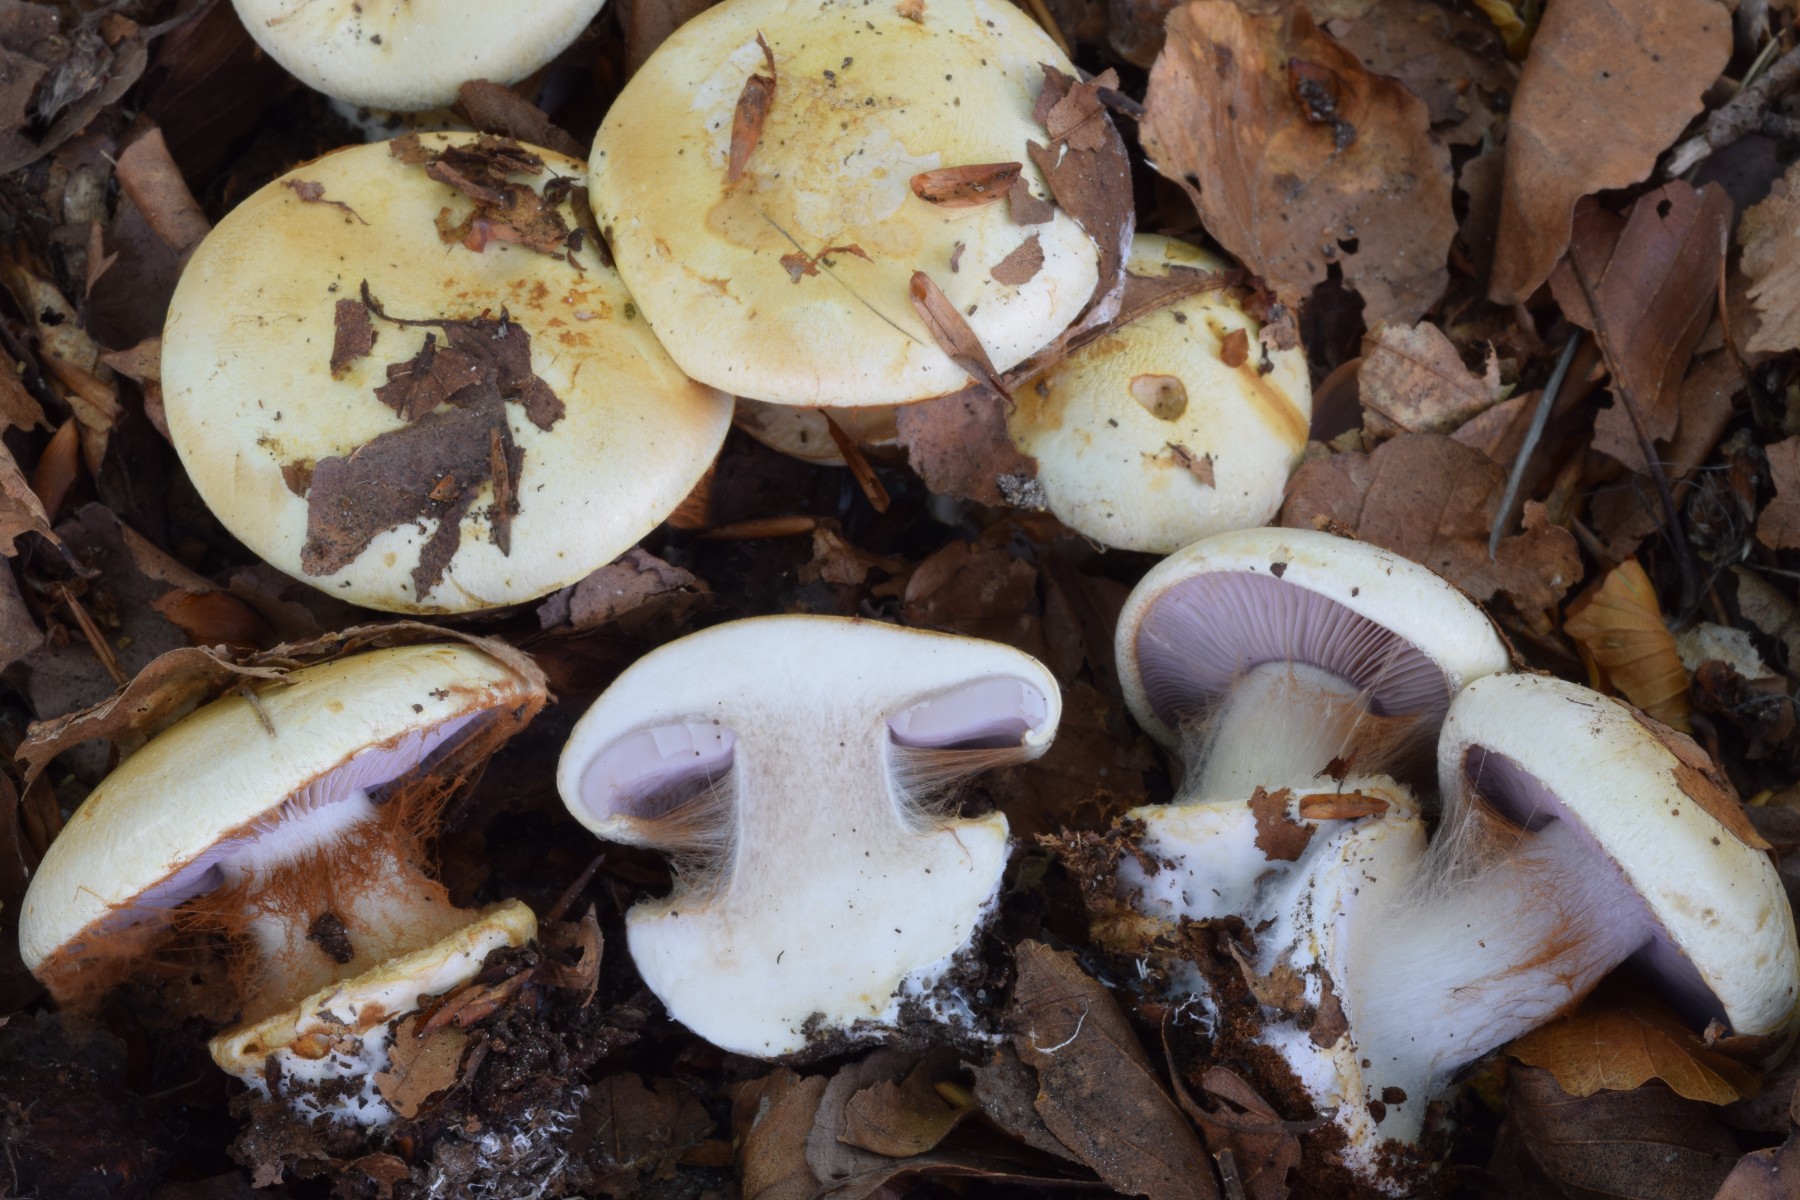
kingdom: Fungi
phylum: Basidiomycota
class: Agaricomycetes
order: Agaricales
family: Cortinariaceae
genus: Calonarius
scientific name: Calonarius catharinae
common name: Katrines slørhat
